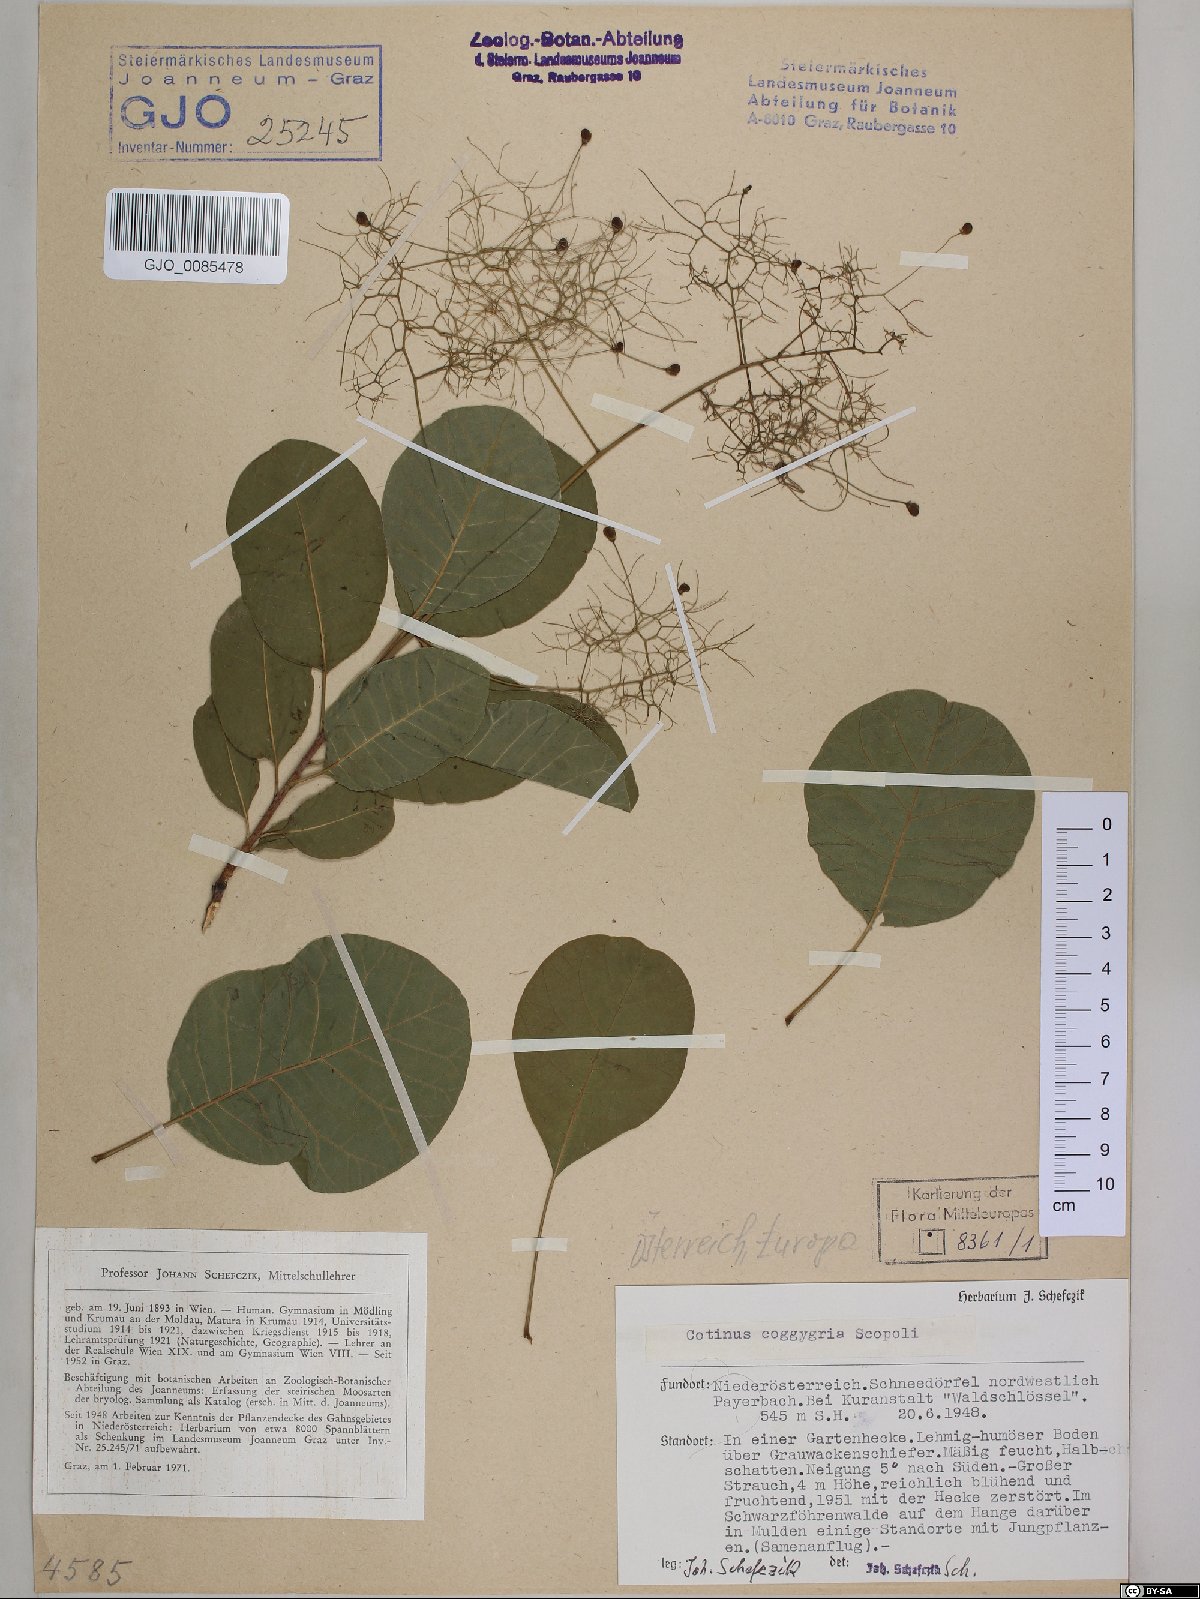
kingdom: Plantae
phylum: Tracheophyta
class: Magnoliopsida
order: Sapindales
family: Anacardiaceae
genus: Cotinus
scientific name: Cotinus coggygria
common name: Smoke-tree
